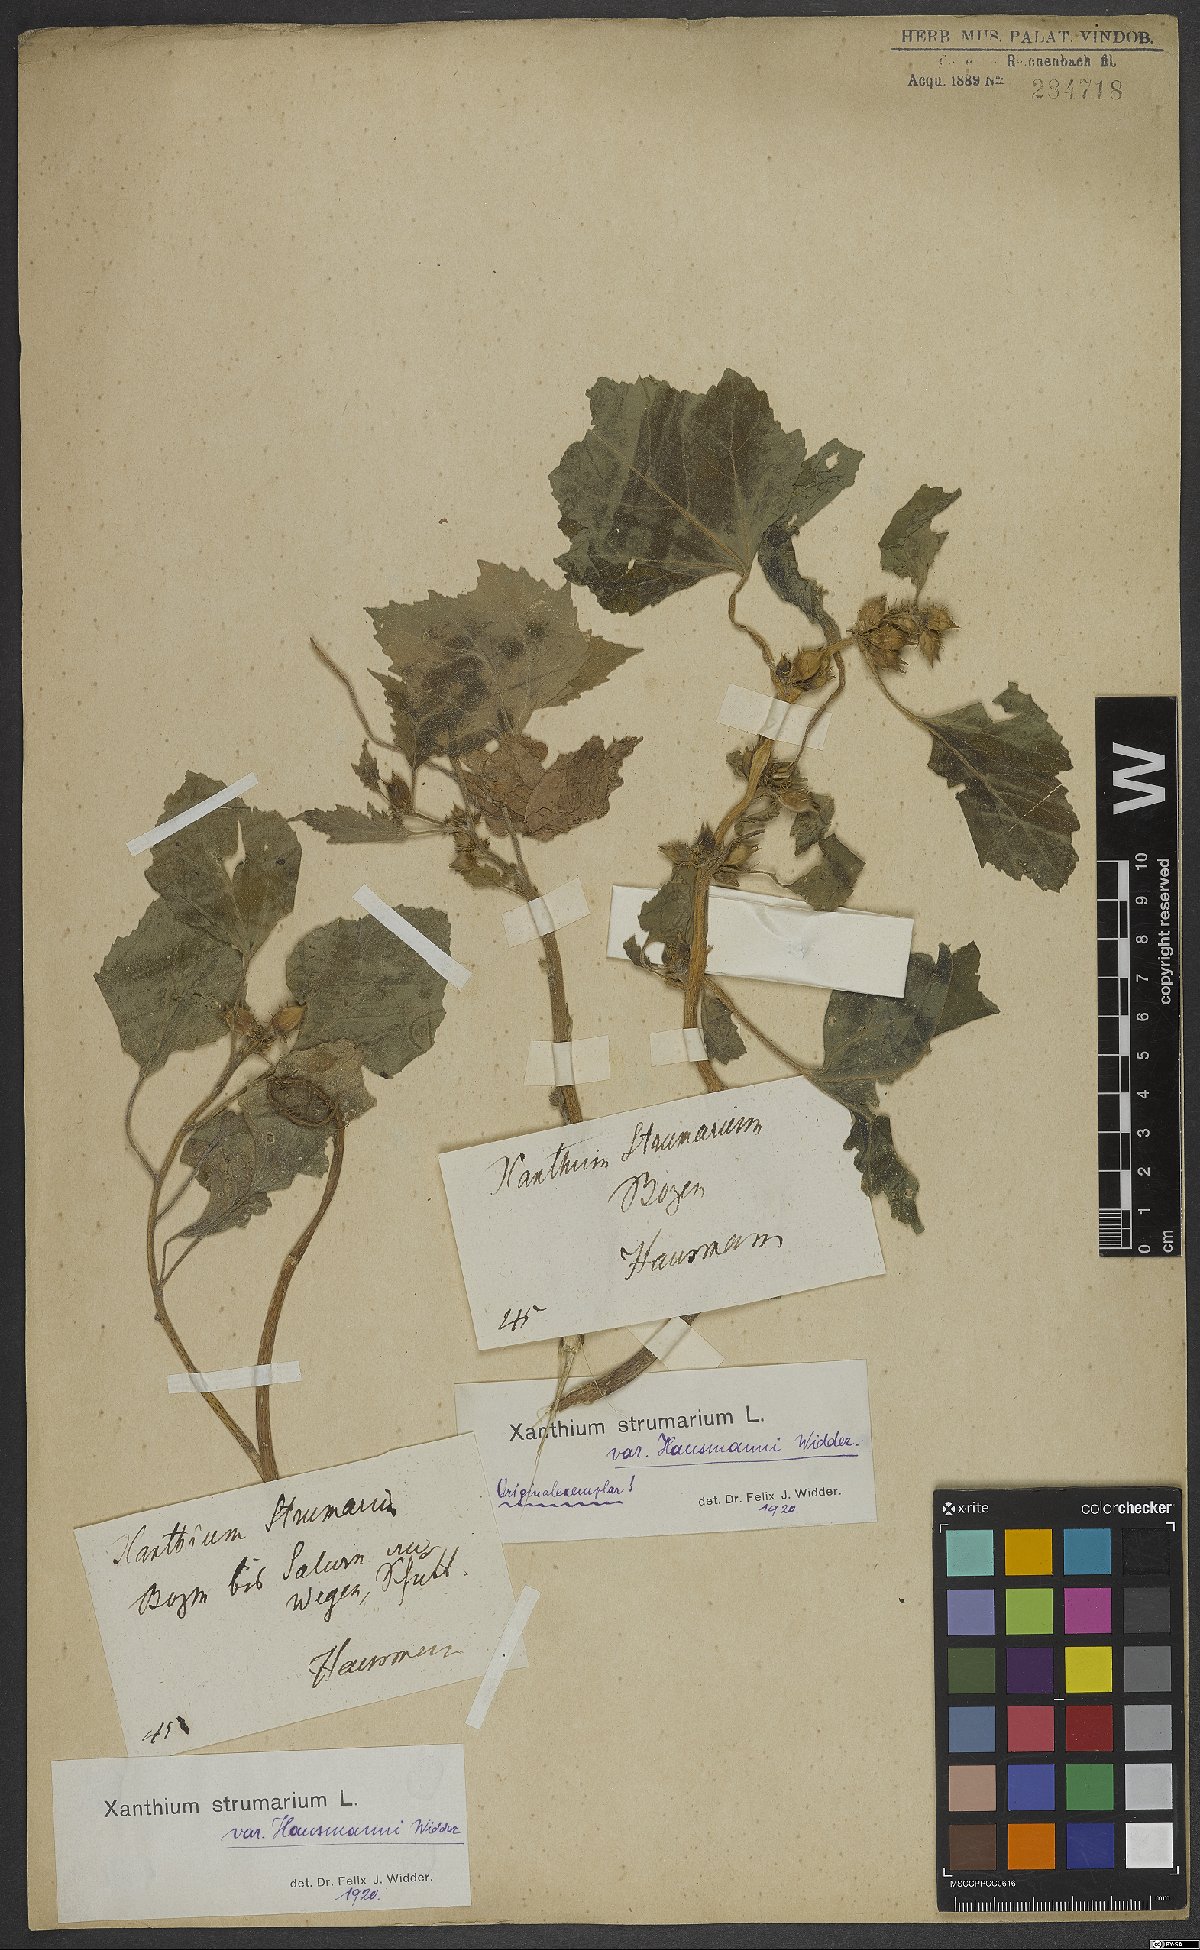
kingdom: Plantae
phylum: Tracheophyta
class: Magnoliopsida
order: Asterales
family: Asteraceae
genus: Xanthium
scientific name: Xanthium strumarium
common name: Rough cocklebur
